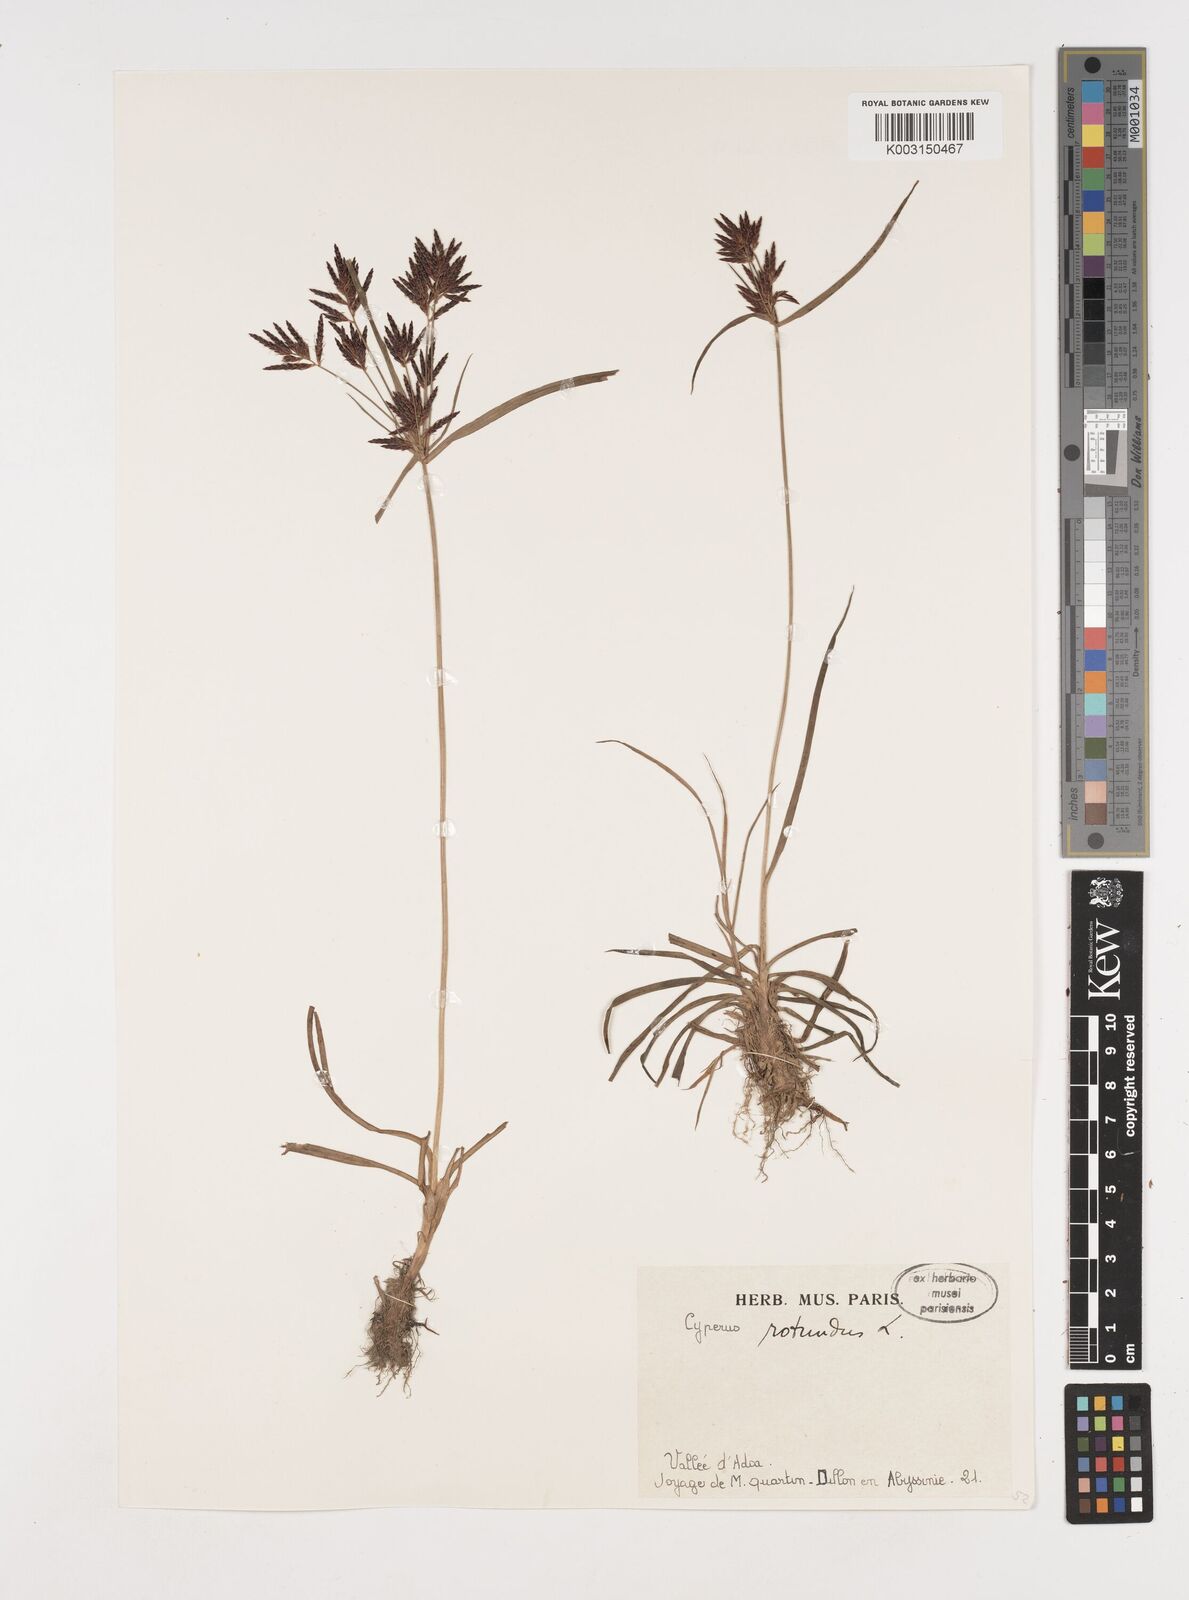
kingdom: Plantae
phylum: Tracheophyta
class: Liliopsida
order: Poales
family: Cyperaceae
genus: Cyperus
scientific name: Cyperus rotundus
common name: Nutgrass
